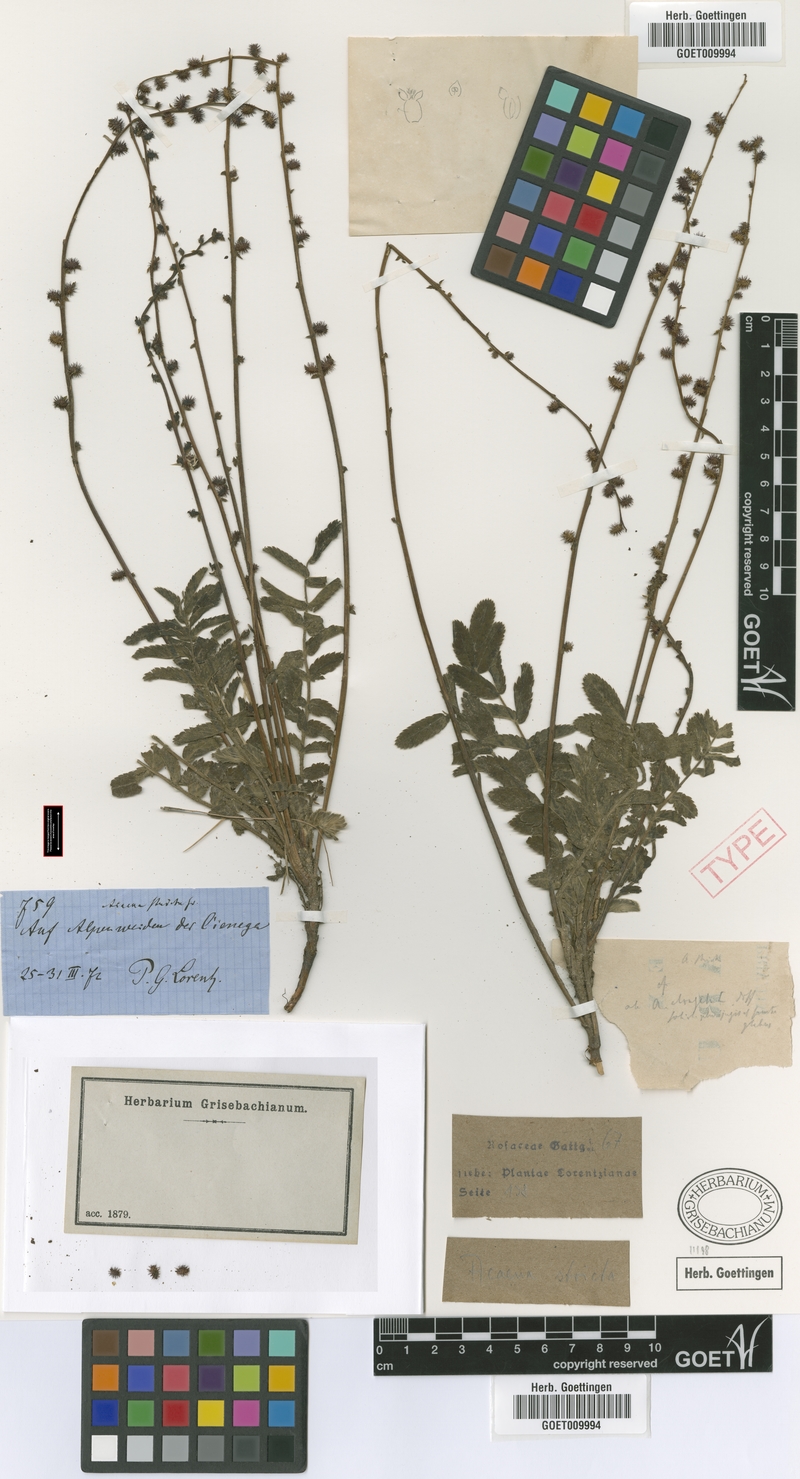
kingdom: Plantae
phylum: Tracheophyta
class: Magnoliopsida
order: Rosales
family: Rosaceae
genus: Acaena
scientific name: Acaena stricta
